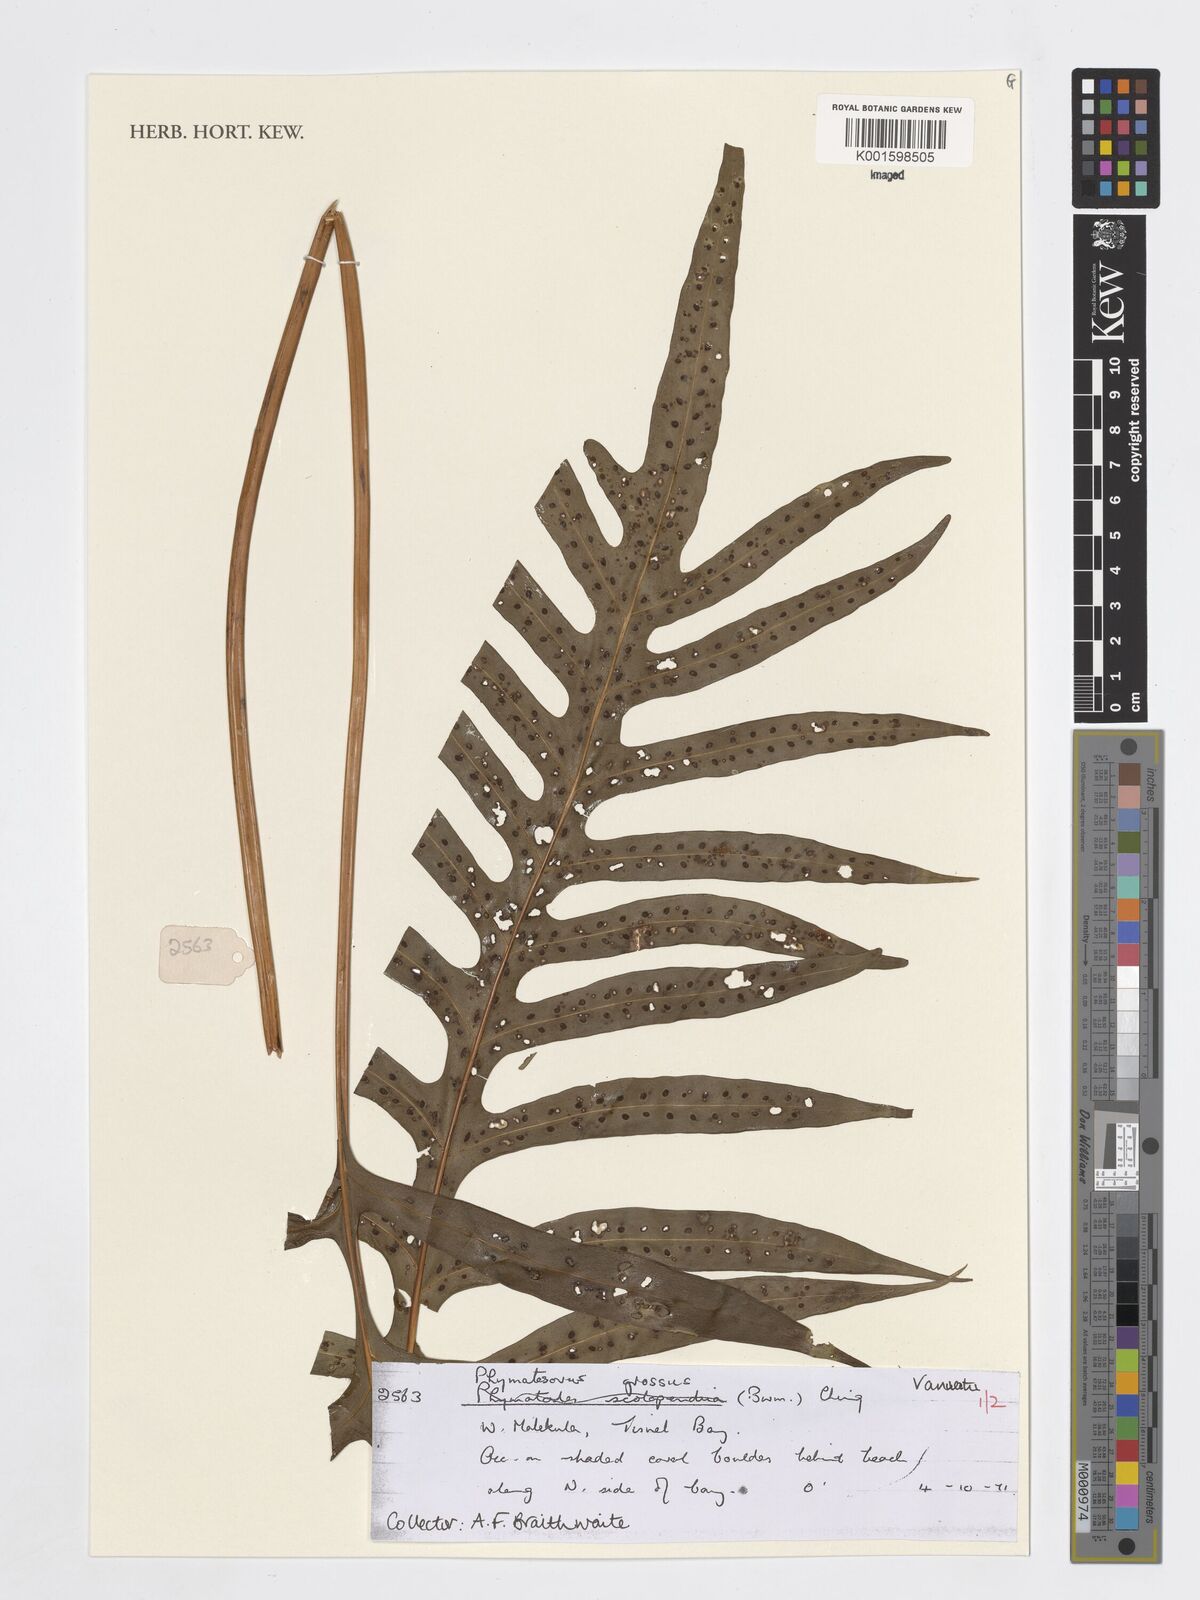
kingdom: Plantae
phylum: Tracheophyta
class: Polypodiopsida
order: Polypodiales
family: Polypodiaceae
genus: Microsorum
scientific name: Microsorum grossum
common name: Musk fern
